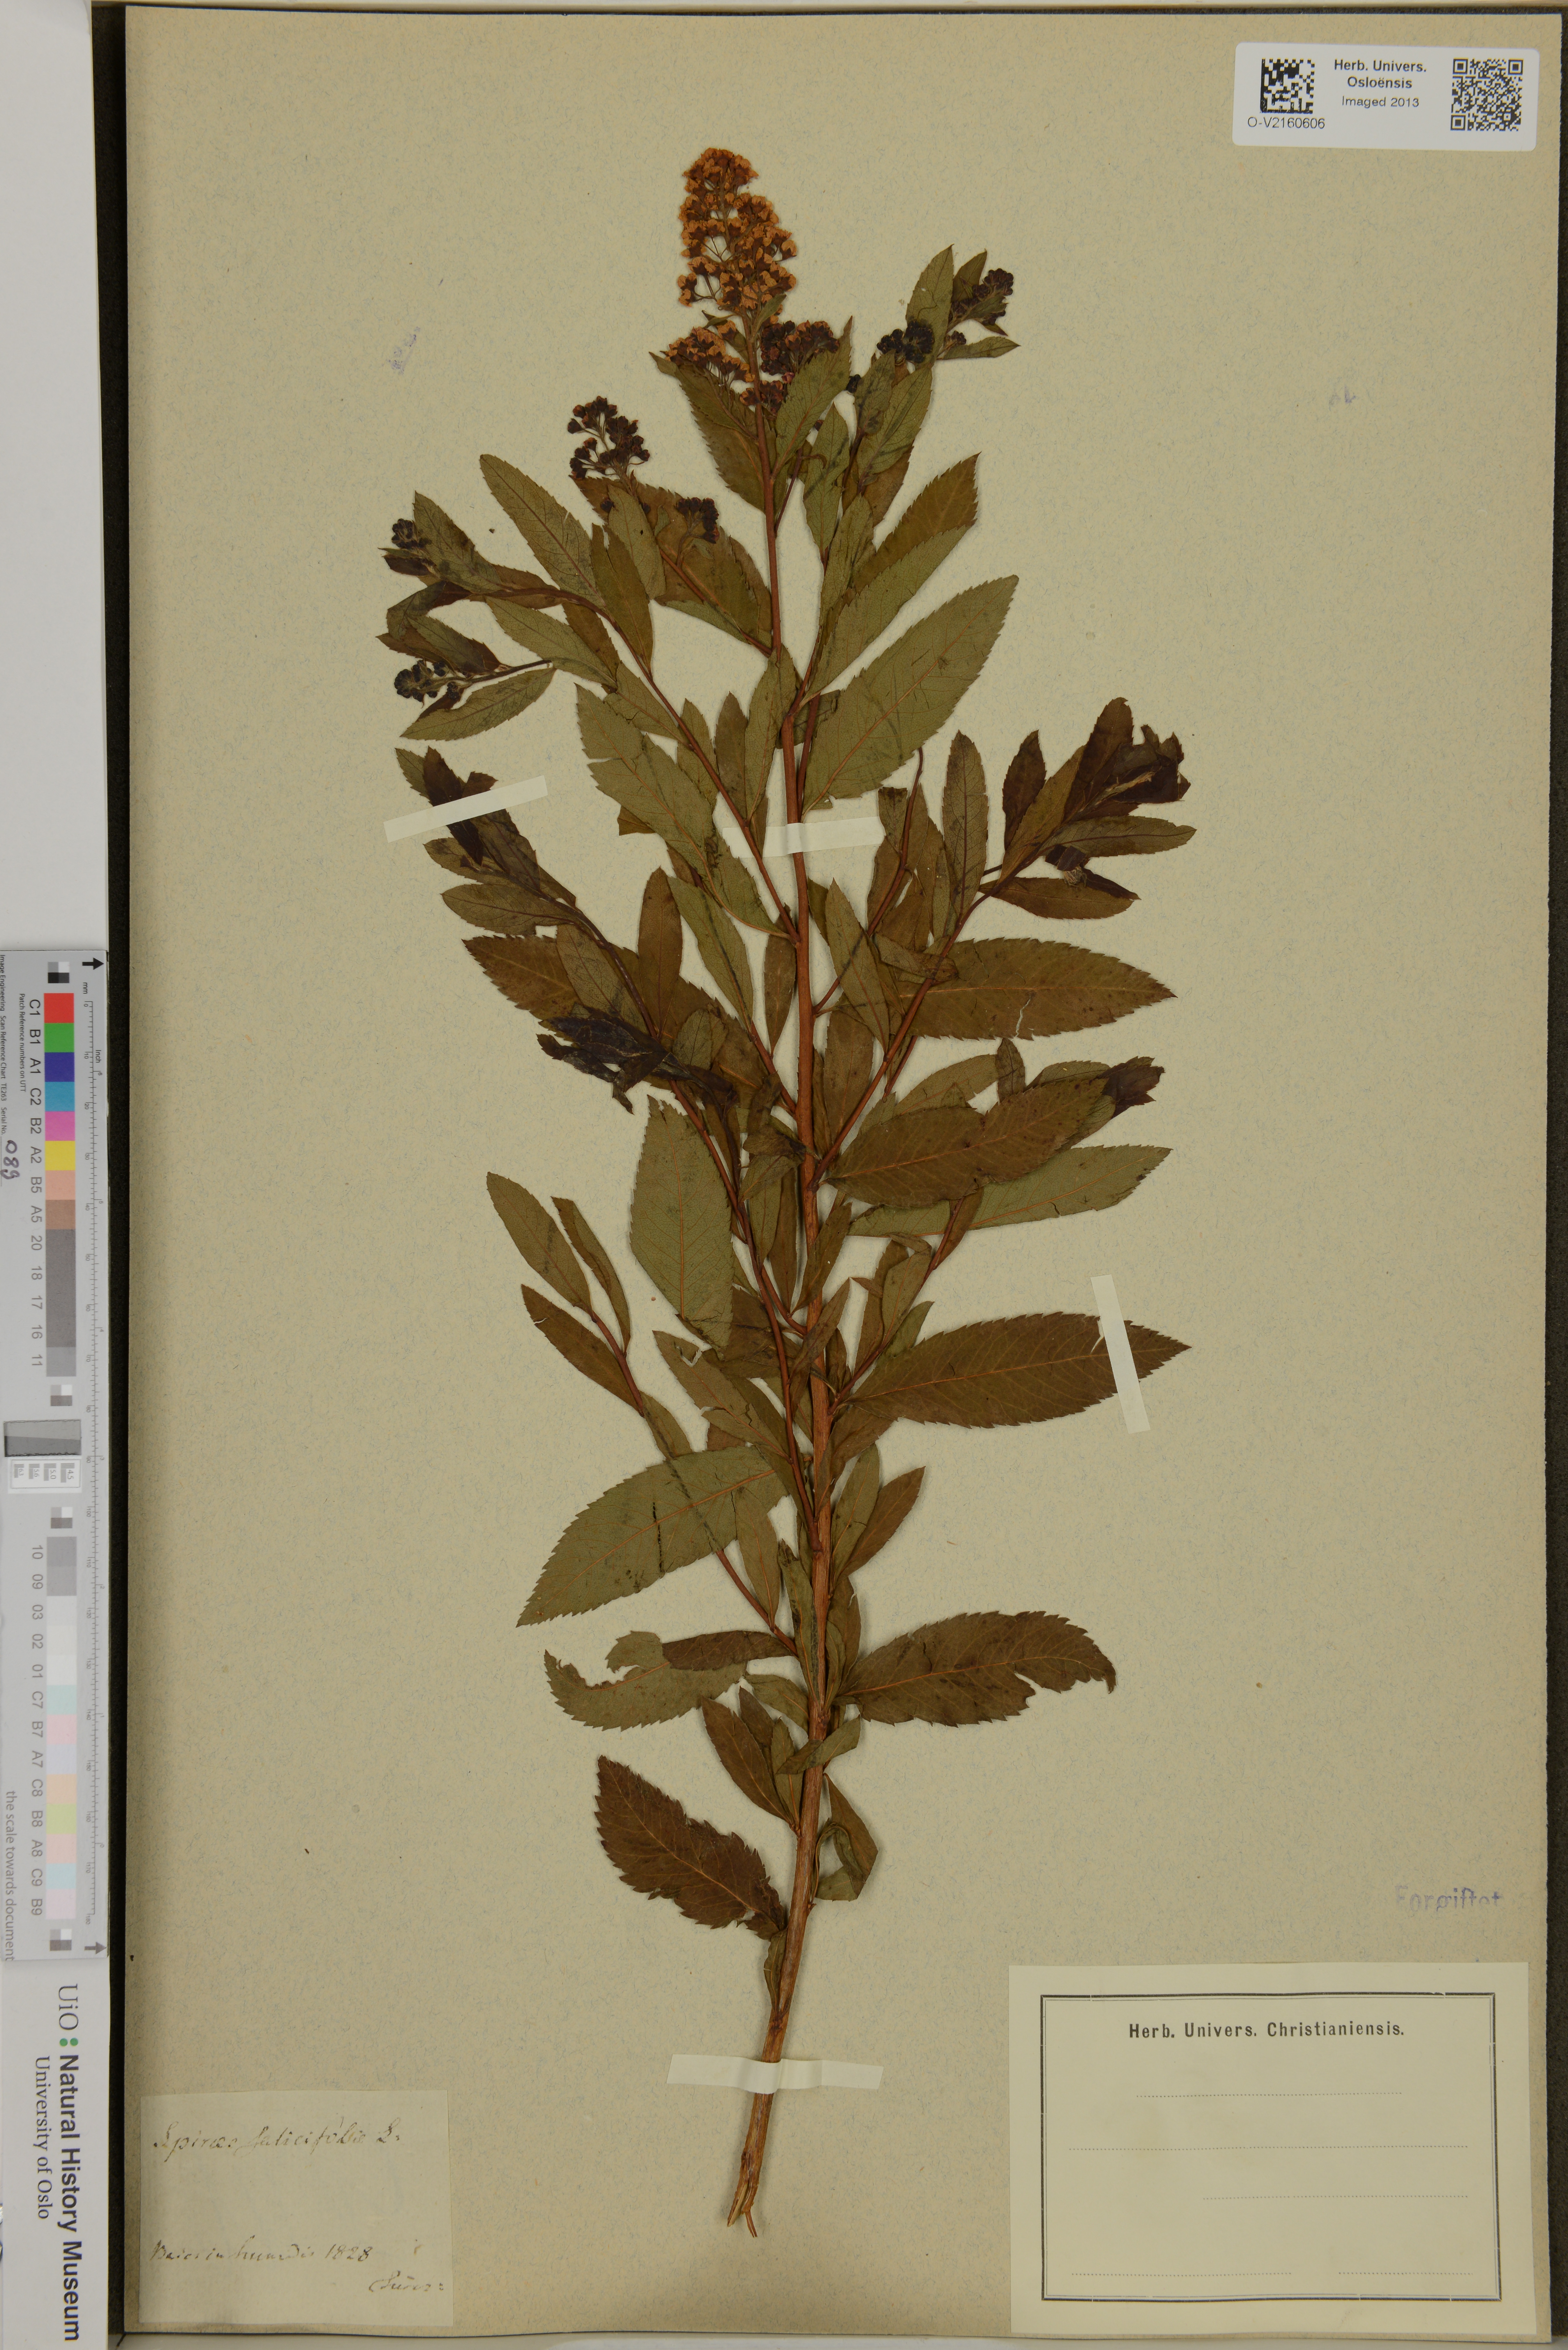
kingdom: Plantae
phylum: Tracheophyta
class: Magnoliopsida
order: Rosales
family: Rosaceae
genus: Spiraea
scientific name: Spiraea salicifolia
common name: Bridewort
